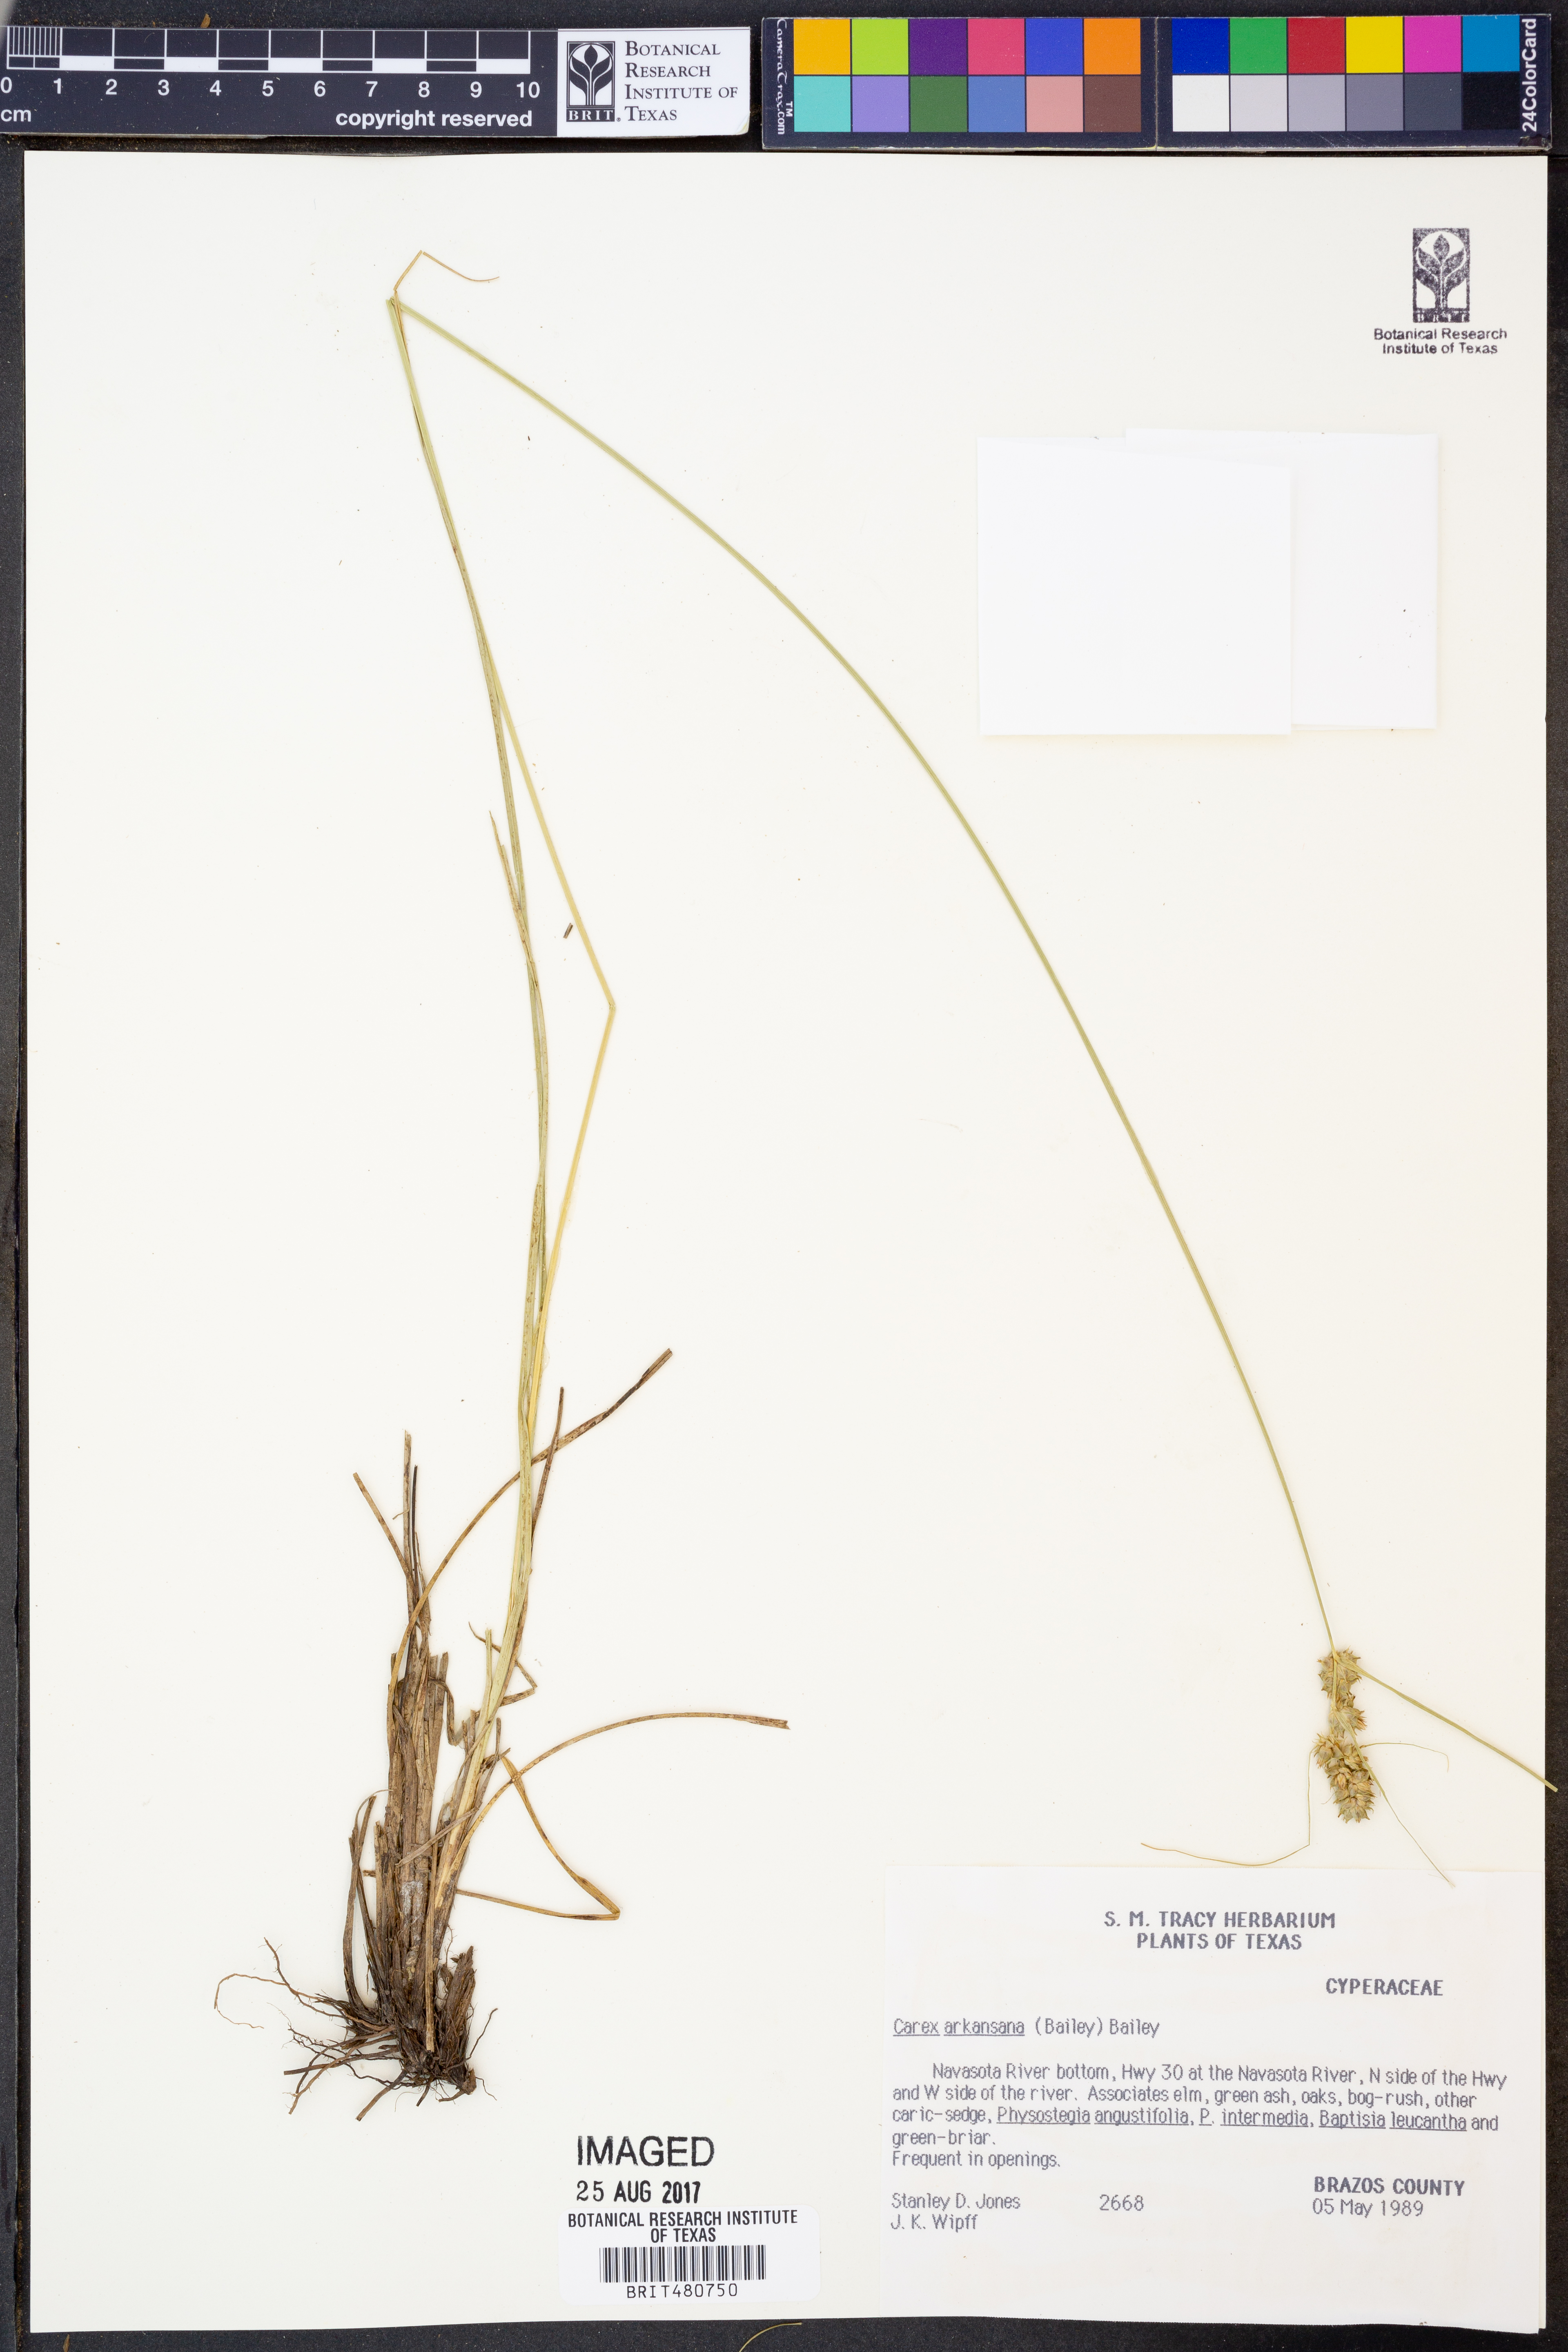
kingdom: Plantae
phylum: Tracheophyta
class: Liliopsida
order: Poales
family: Cyperaceae
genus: Carex
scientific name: Carex arkansana
